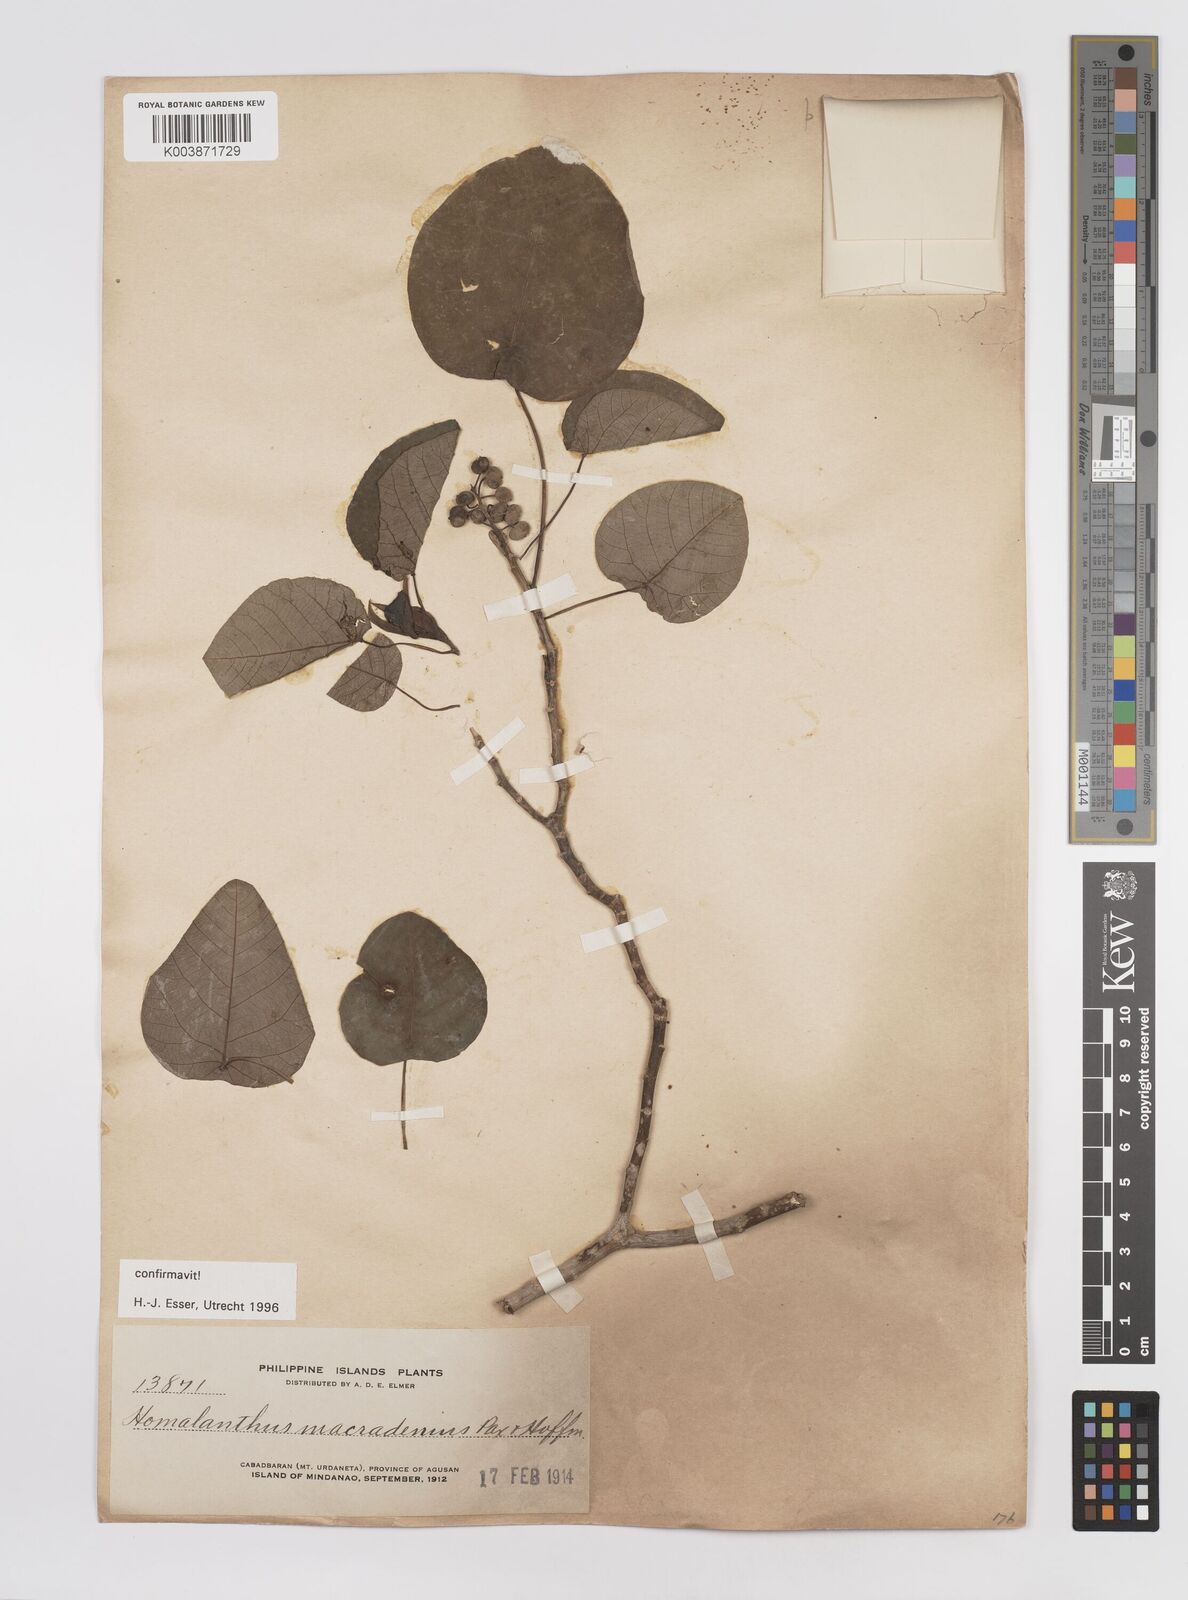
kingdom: Plantae
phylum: Tracheophyta
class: Magnoliopsida
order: Malpighiales
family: Euphorbiaceae
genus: Homalanthus
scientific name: Homalanthus macradenius
